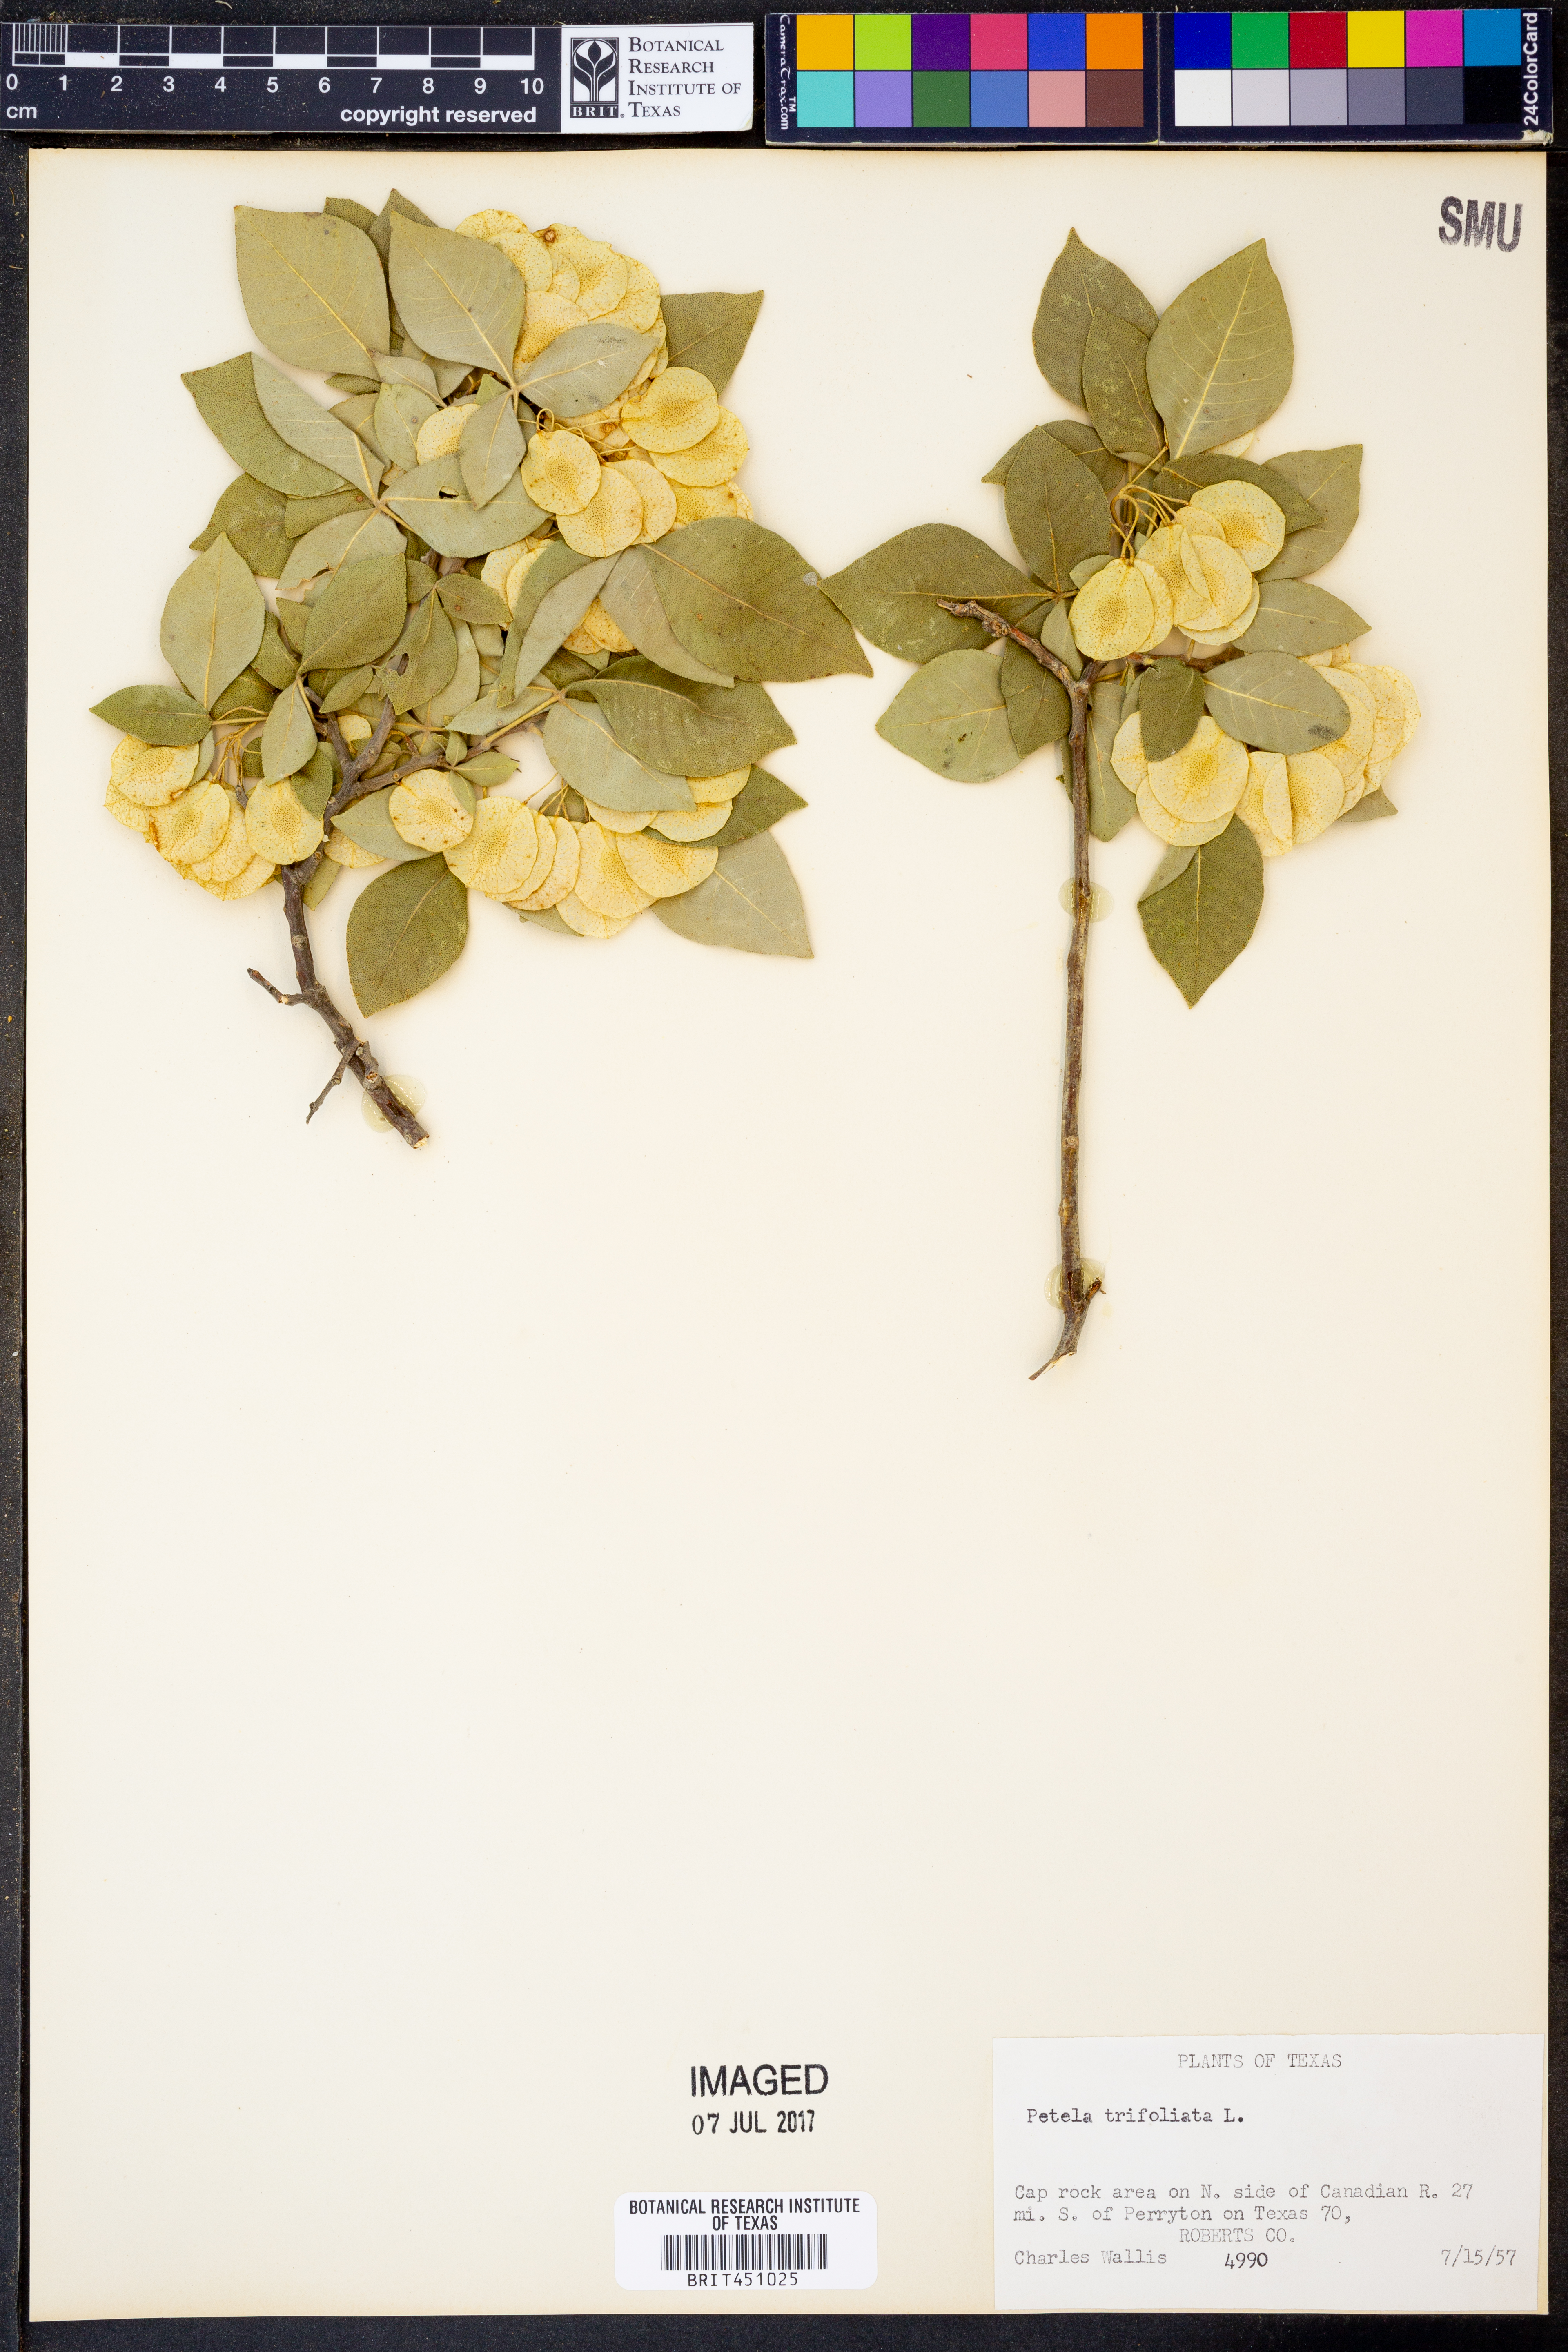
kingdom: Plantae
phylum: Tracheophyta
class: Magnoliopsida
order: Sapindales
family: Rutaceae
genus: Ptelea
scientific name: Ptelea trifoliata
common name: Common hop-tree
